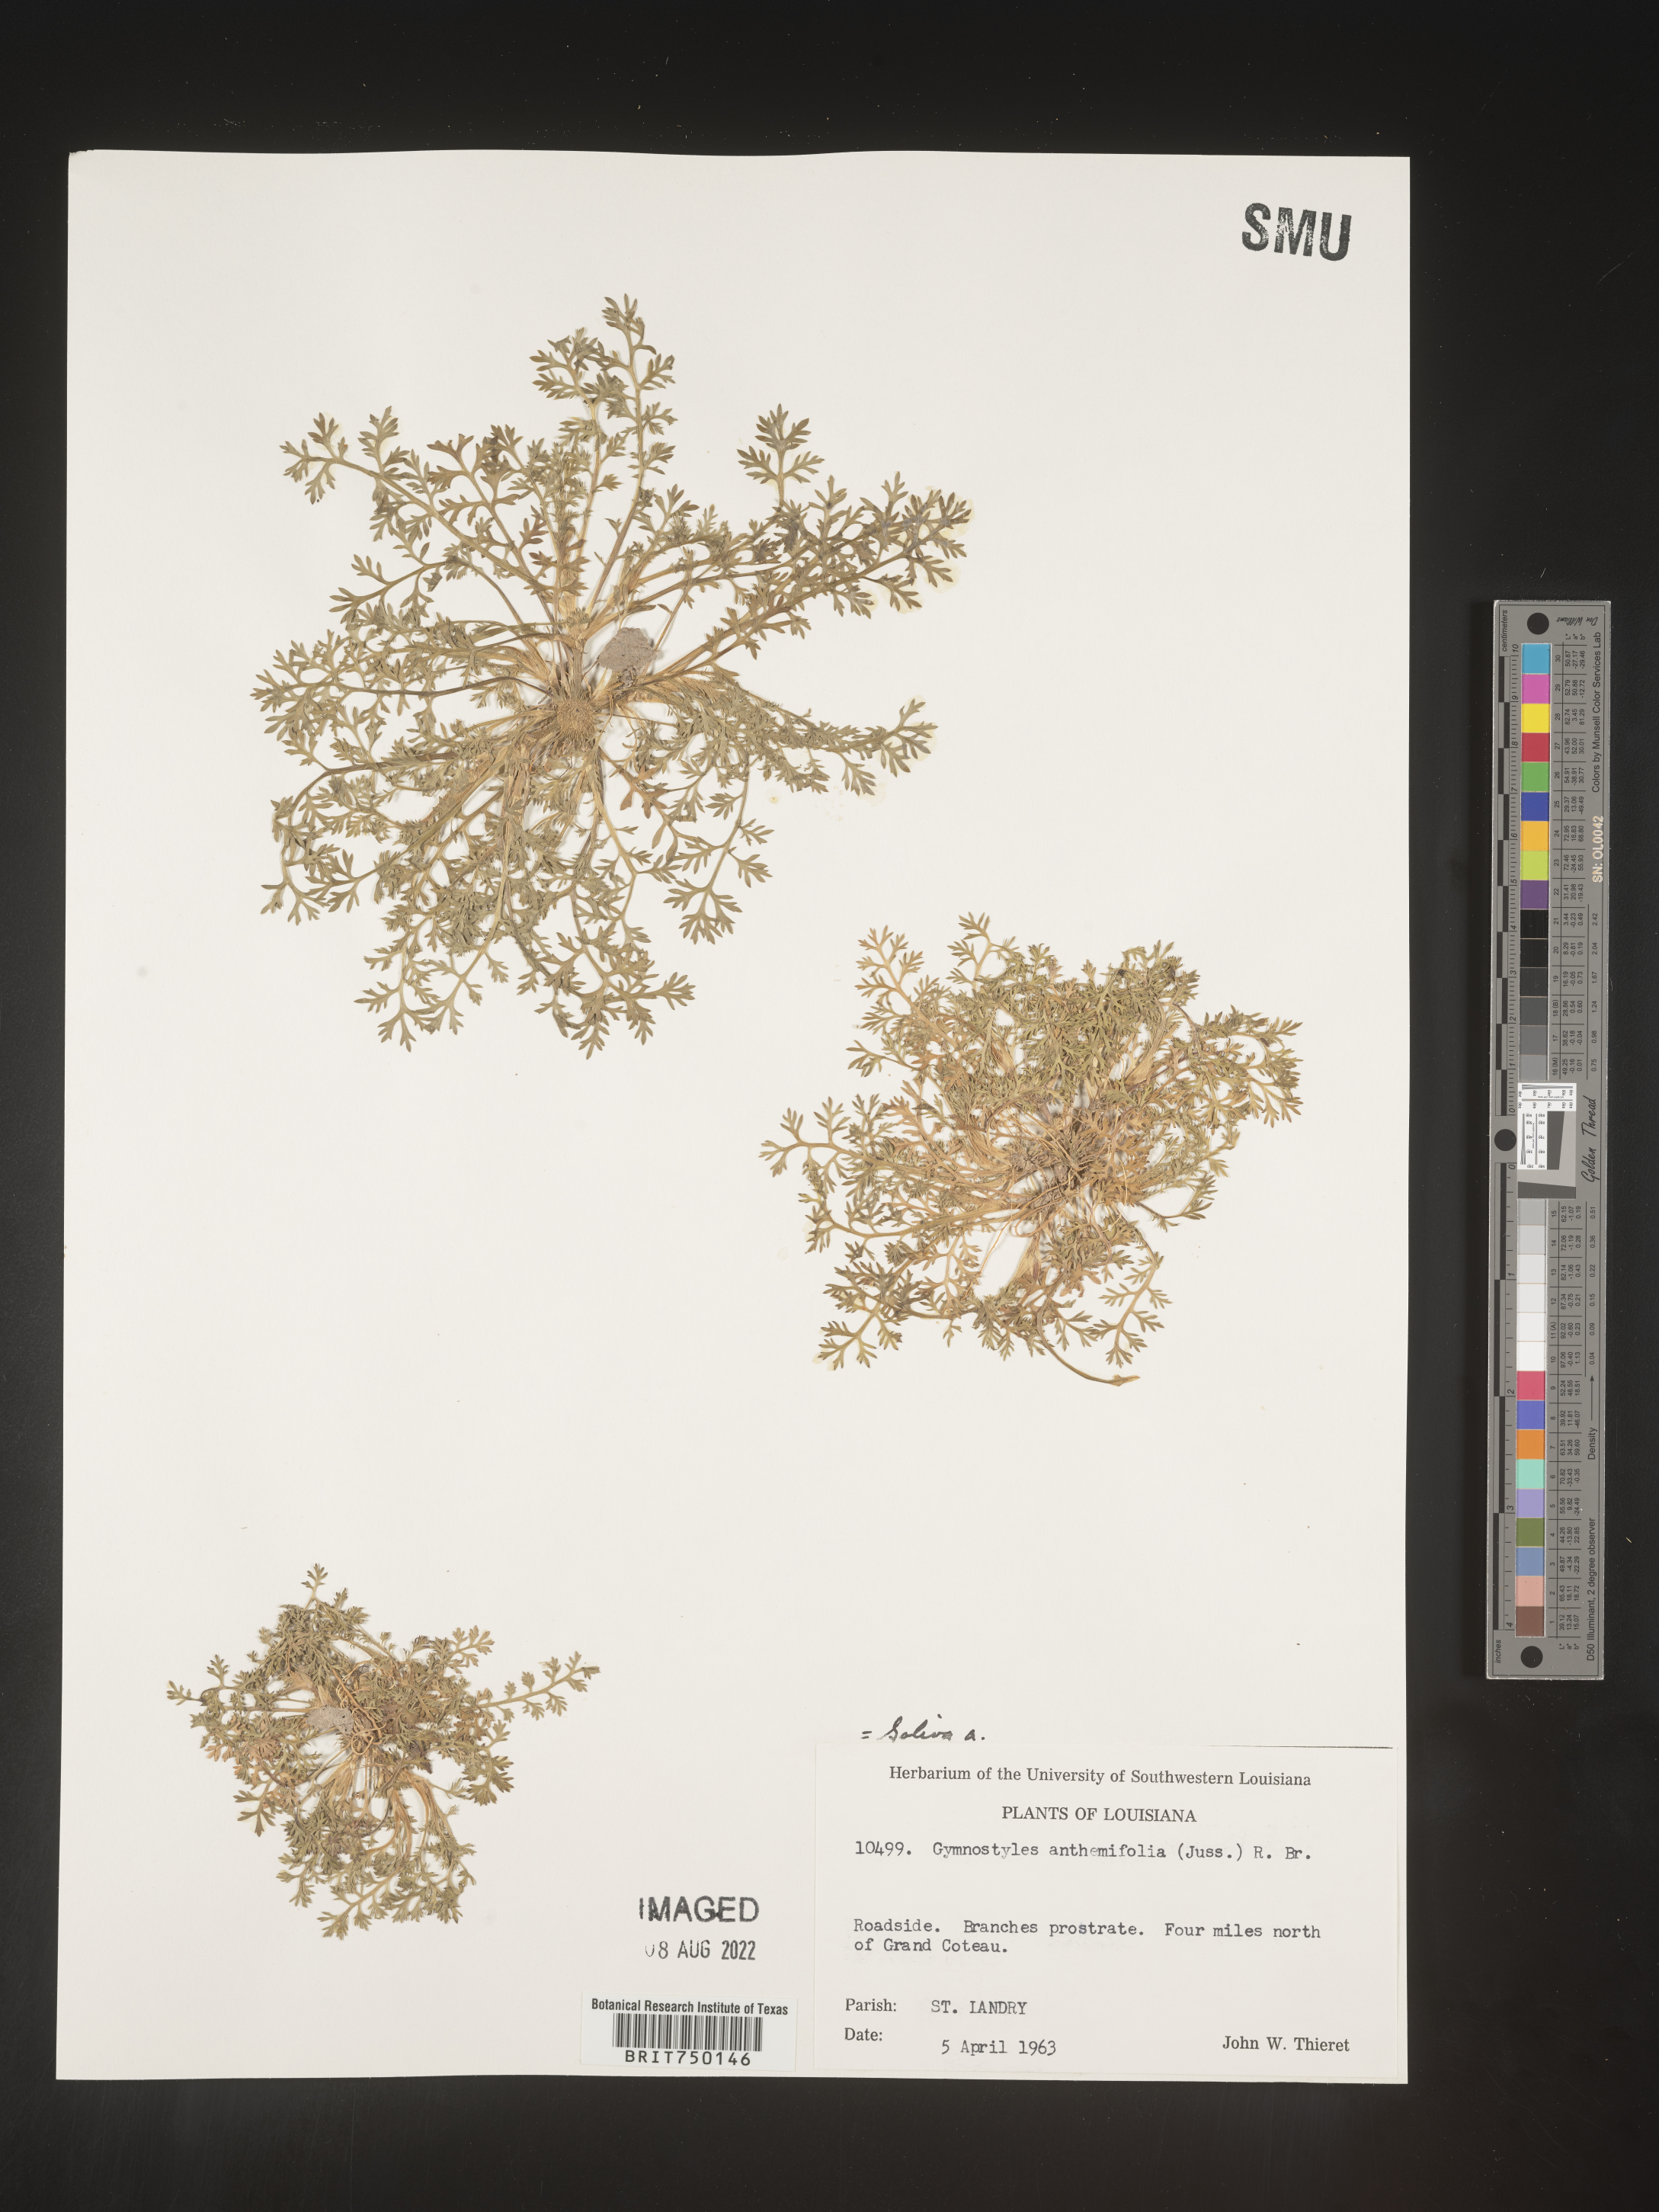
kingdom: Plantae
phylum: Tracheophyta
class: Magnoliopsida
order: Asterales
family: Asteraceae
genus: Soliva
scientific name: Soliva
